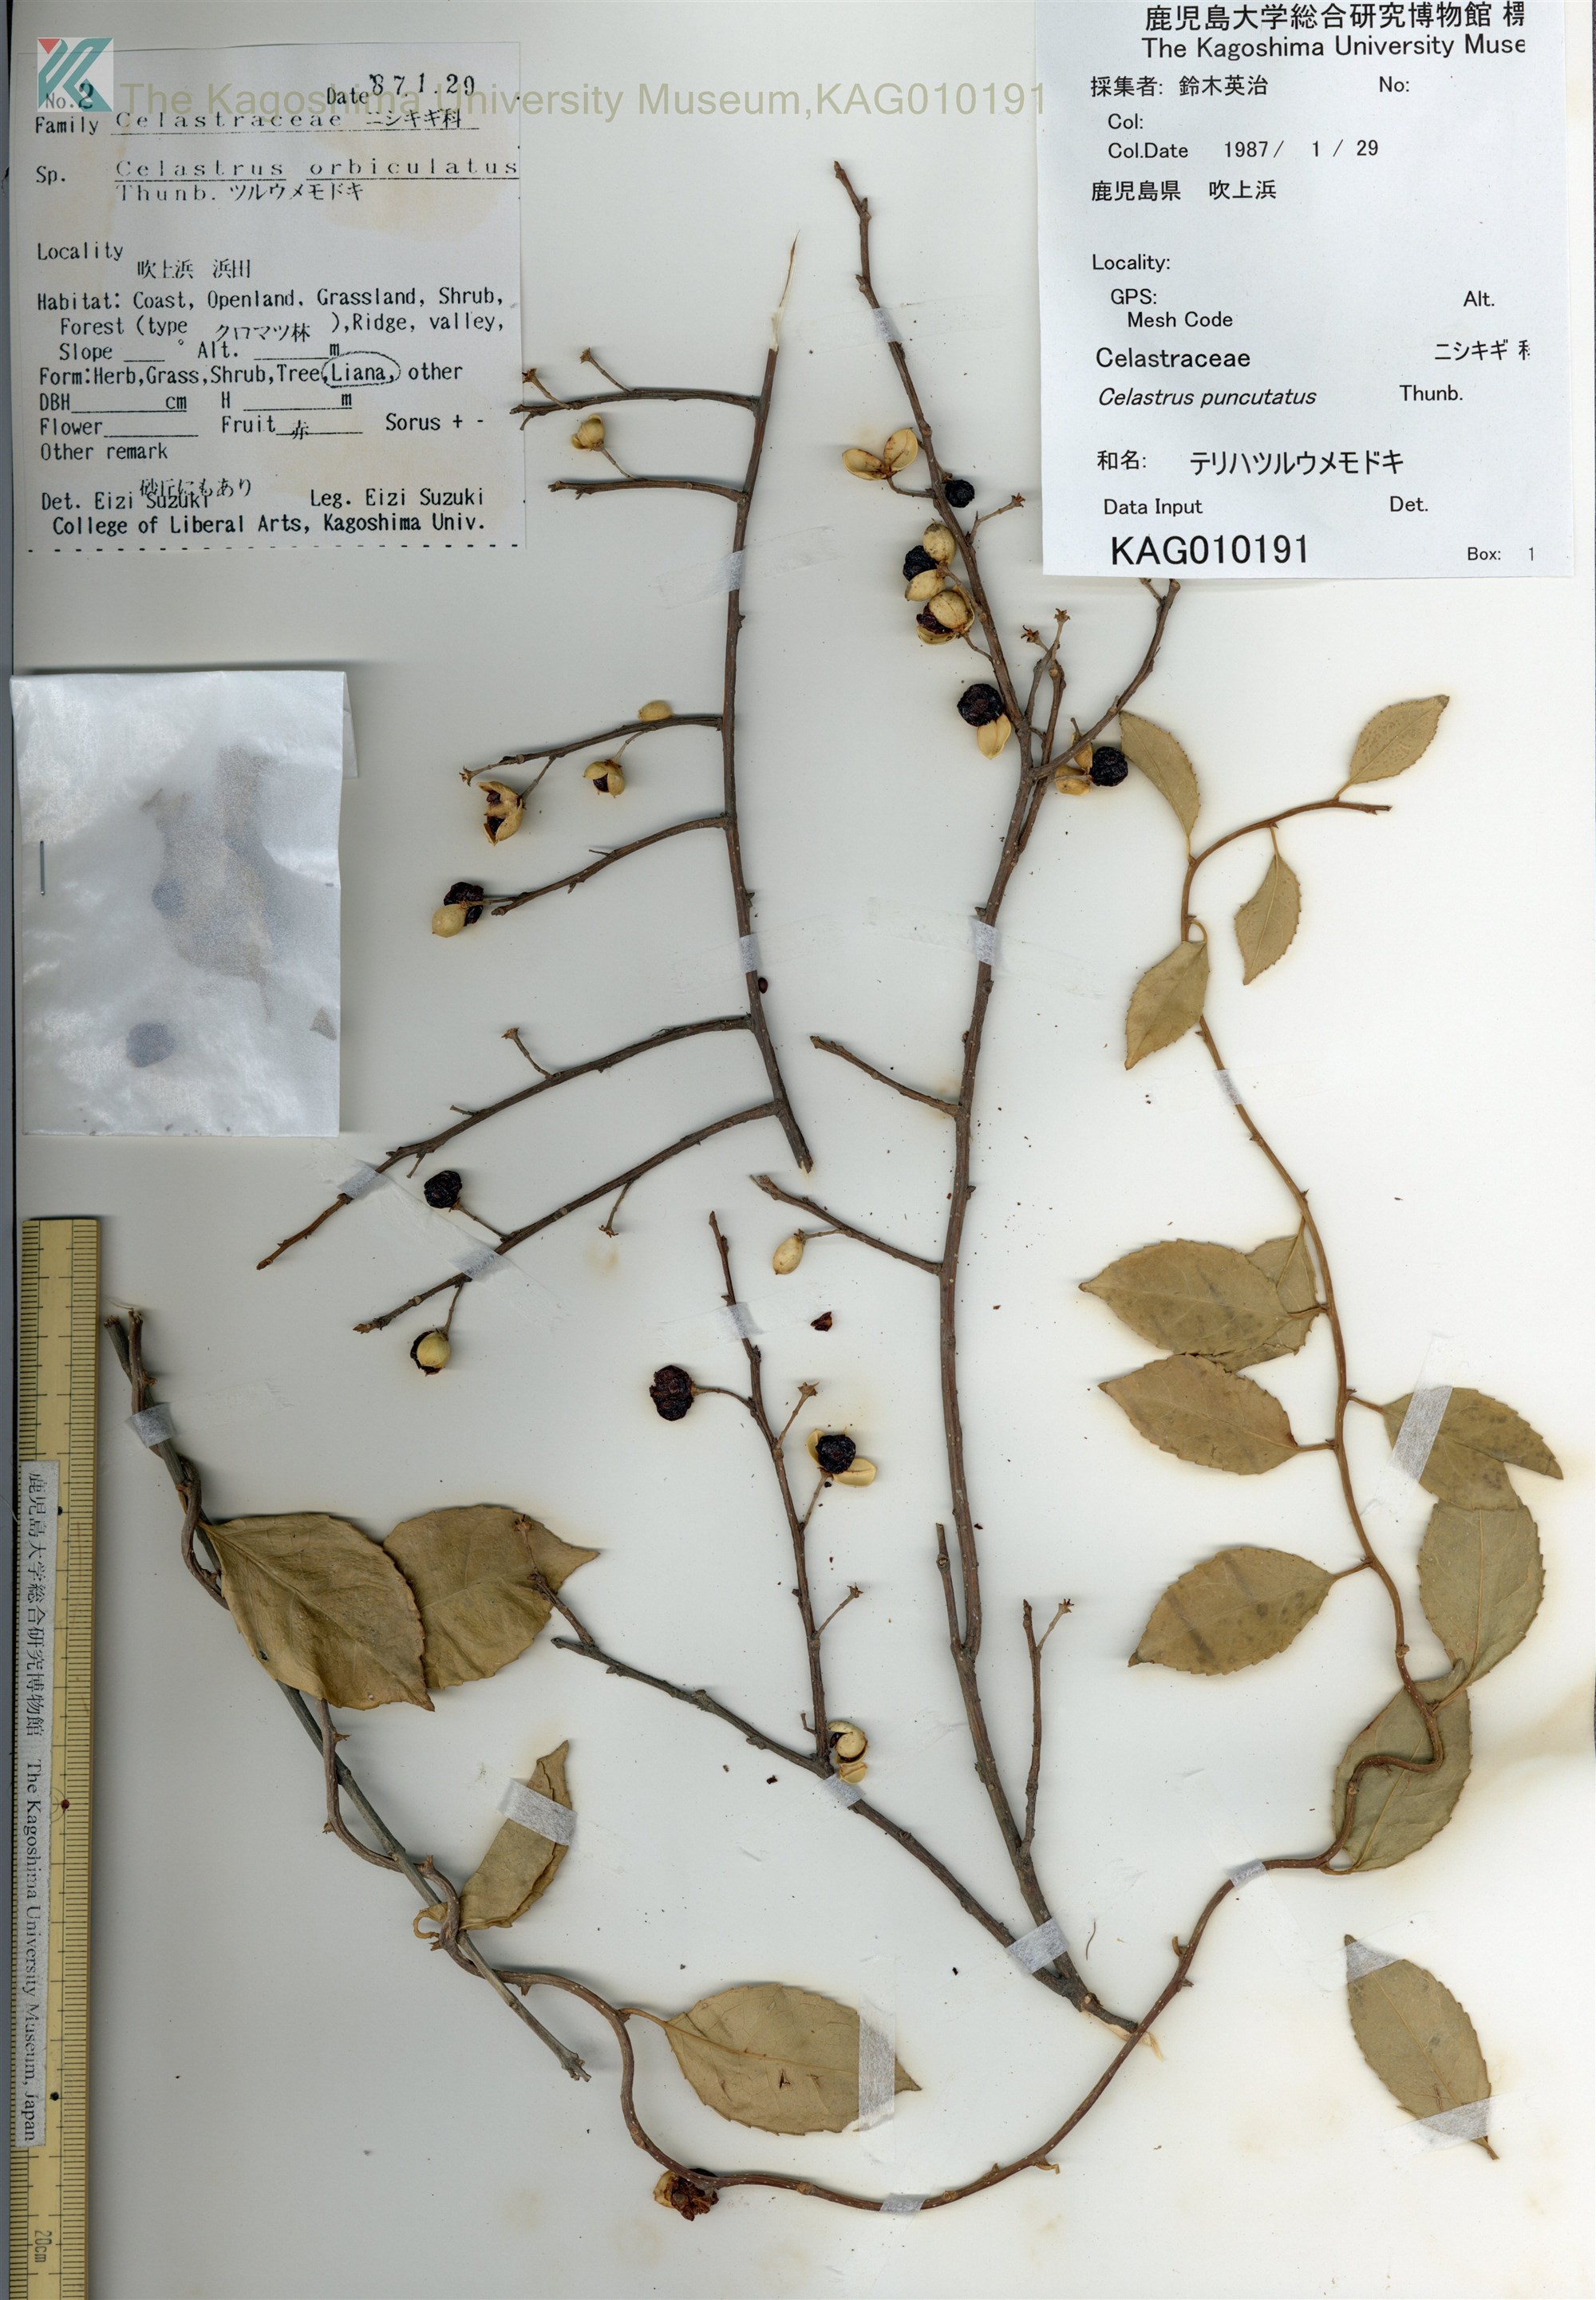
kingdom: Plantae
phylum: Tracheophyta
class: Magnoliopsida
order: Celastrales
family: Celastraceae
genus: Celastrus
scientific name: Celastrus punctatus
